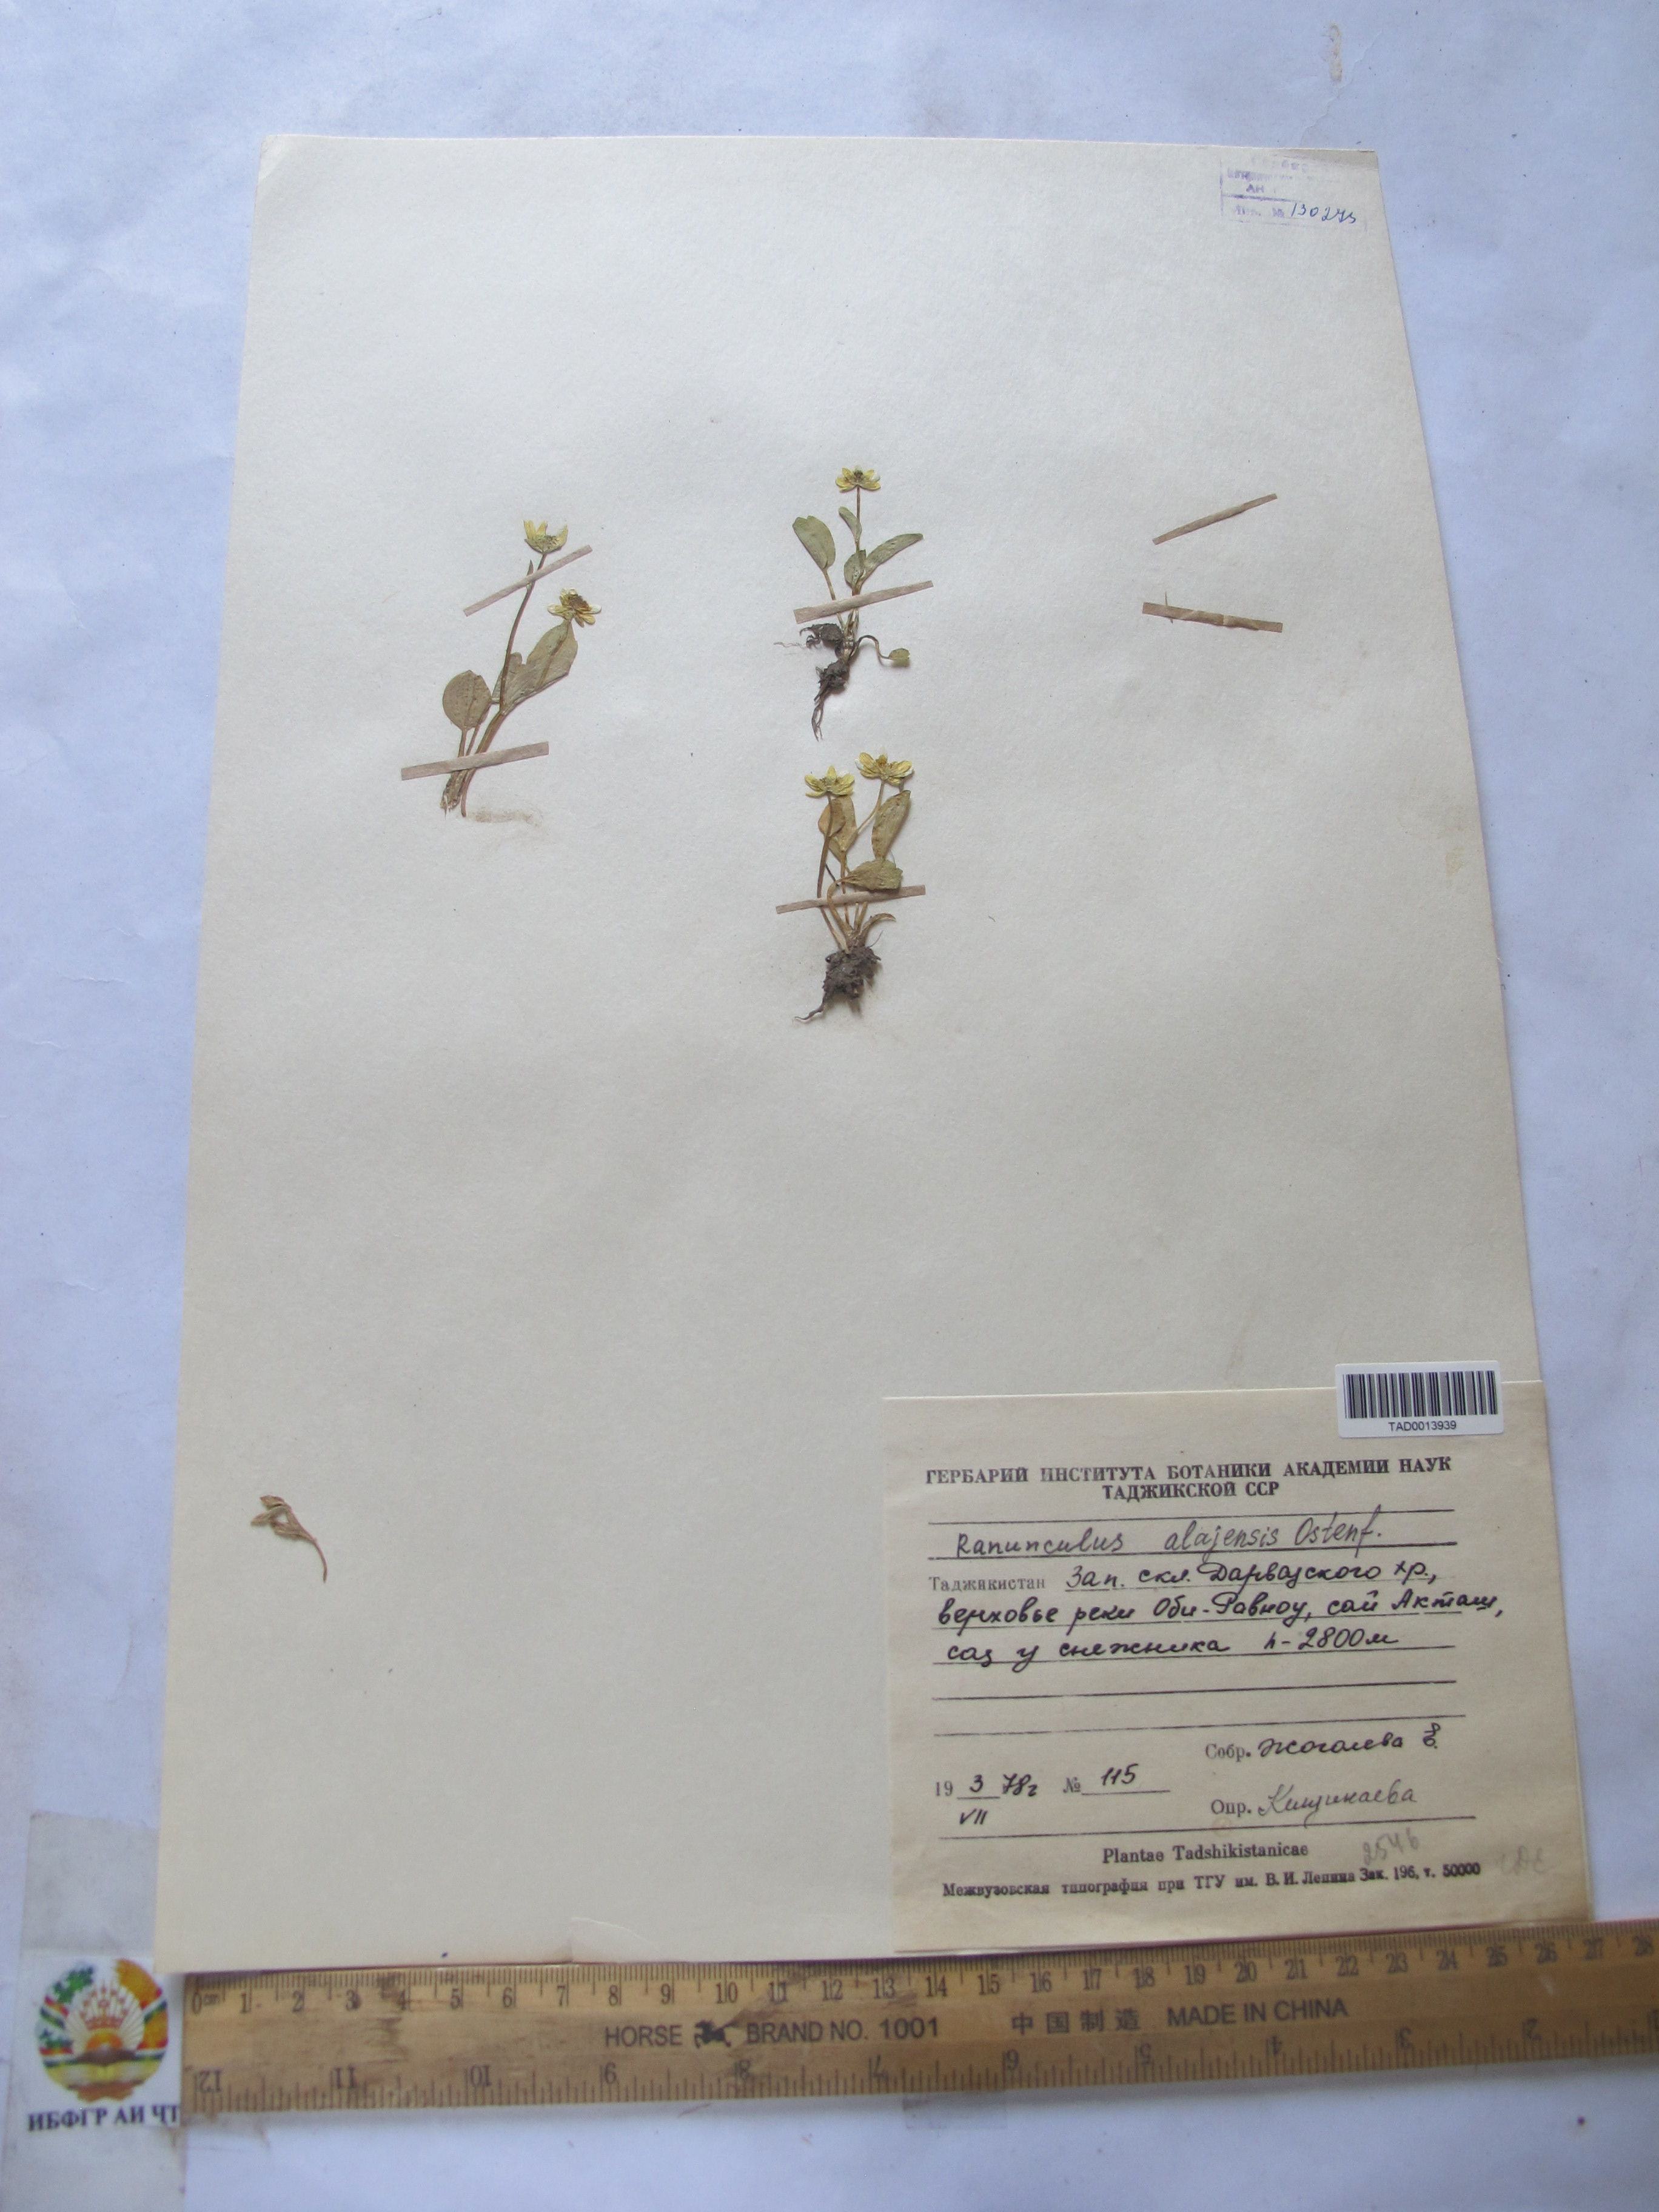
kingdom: Plantae
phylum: Tracheophyta
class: Magnoliopsida
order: Ranunculales
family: Ranunculaceae
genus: Ranunculus
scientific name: Ranunculus alaiensis
